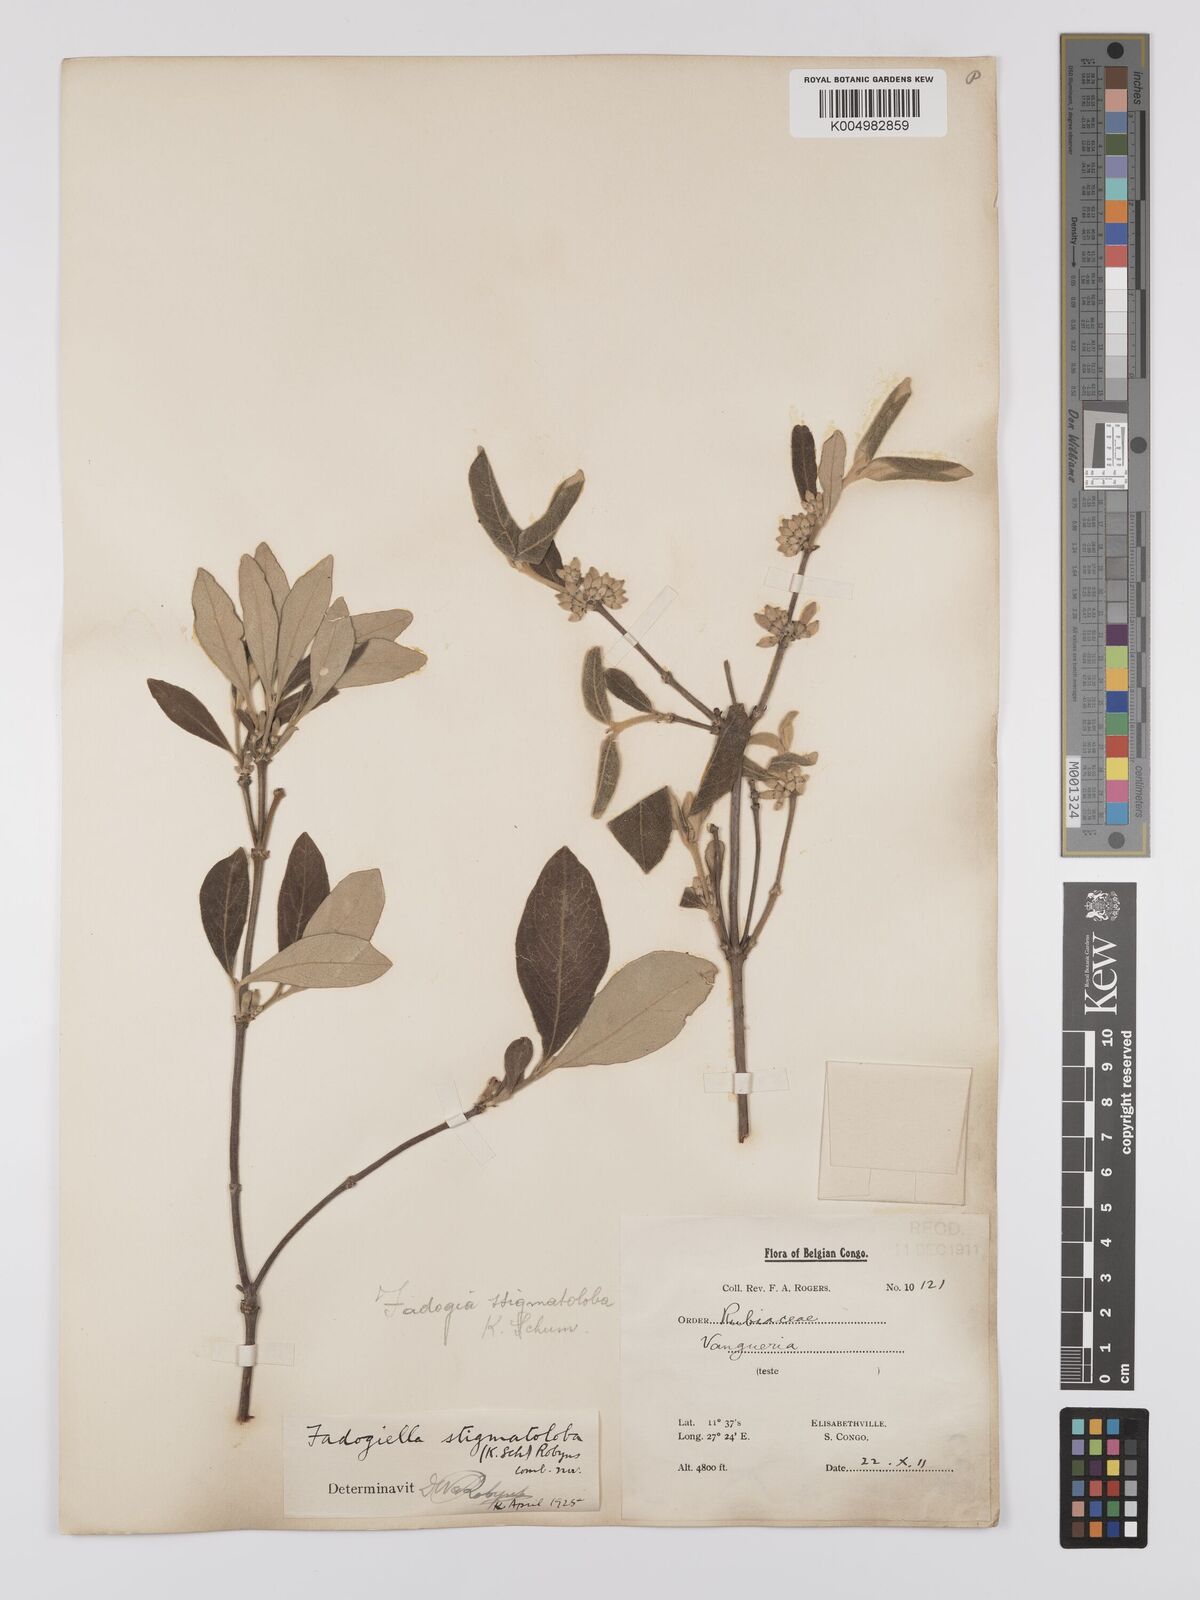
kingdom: Plantae
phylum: Tracheophyta
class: Magnoliopsida
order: Gentianales
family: Rubiaceae
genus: Fadogiella
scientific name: Fadogiella stigmatoloba
